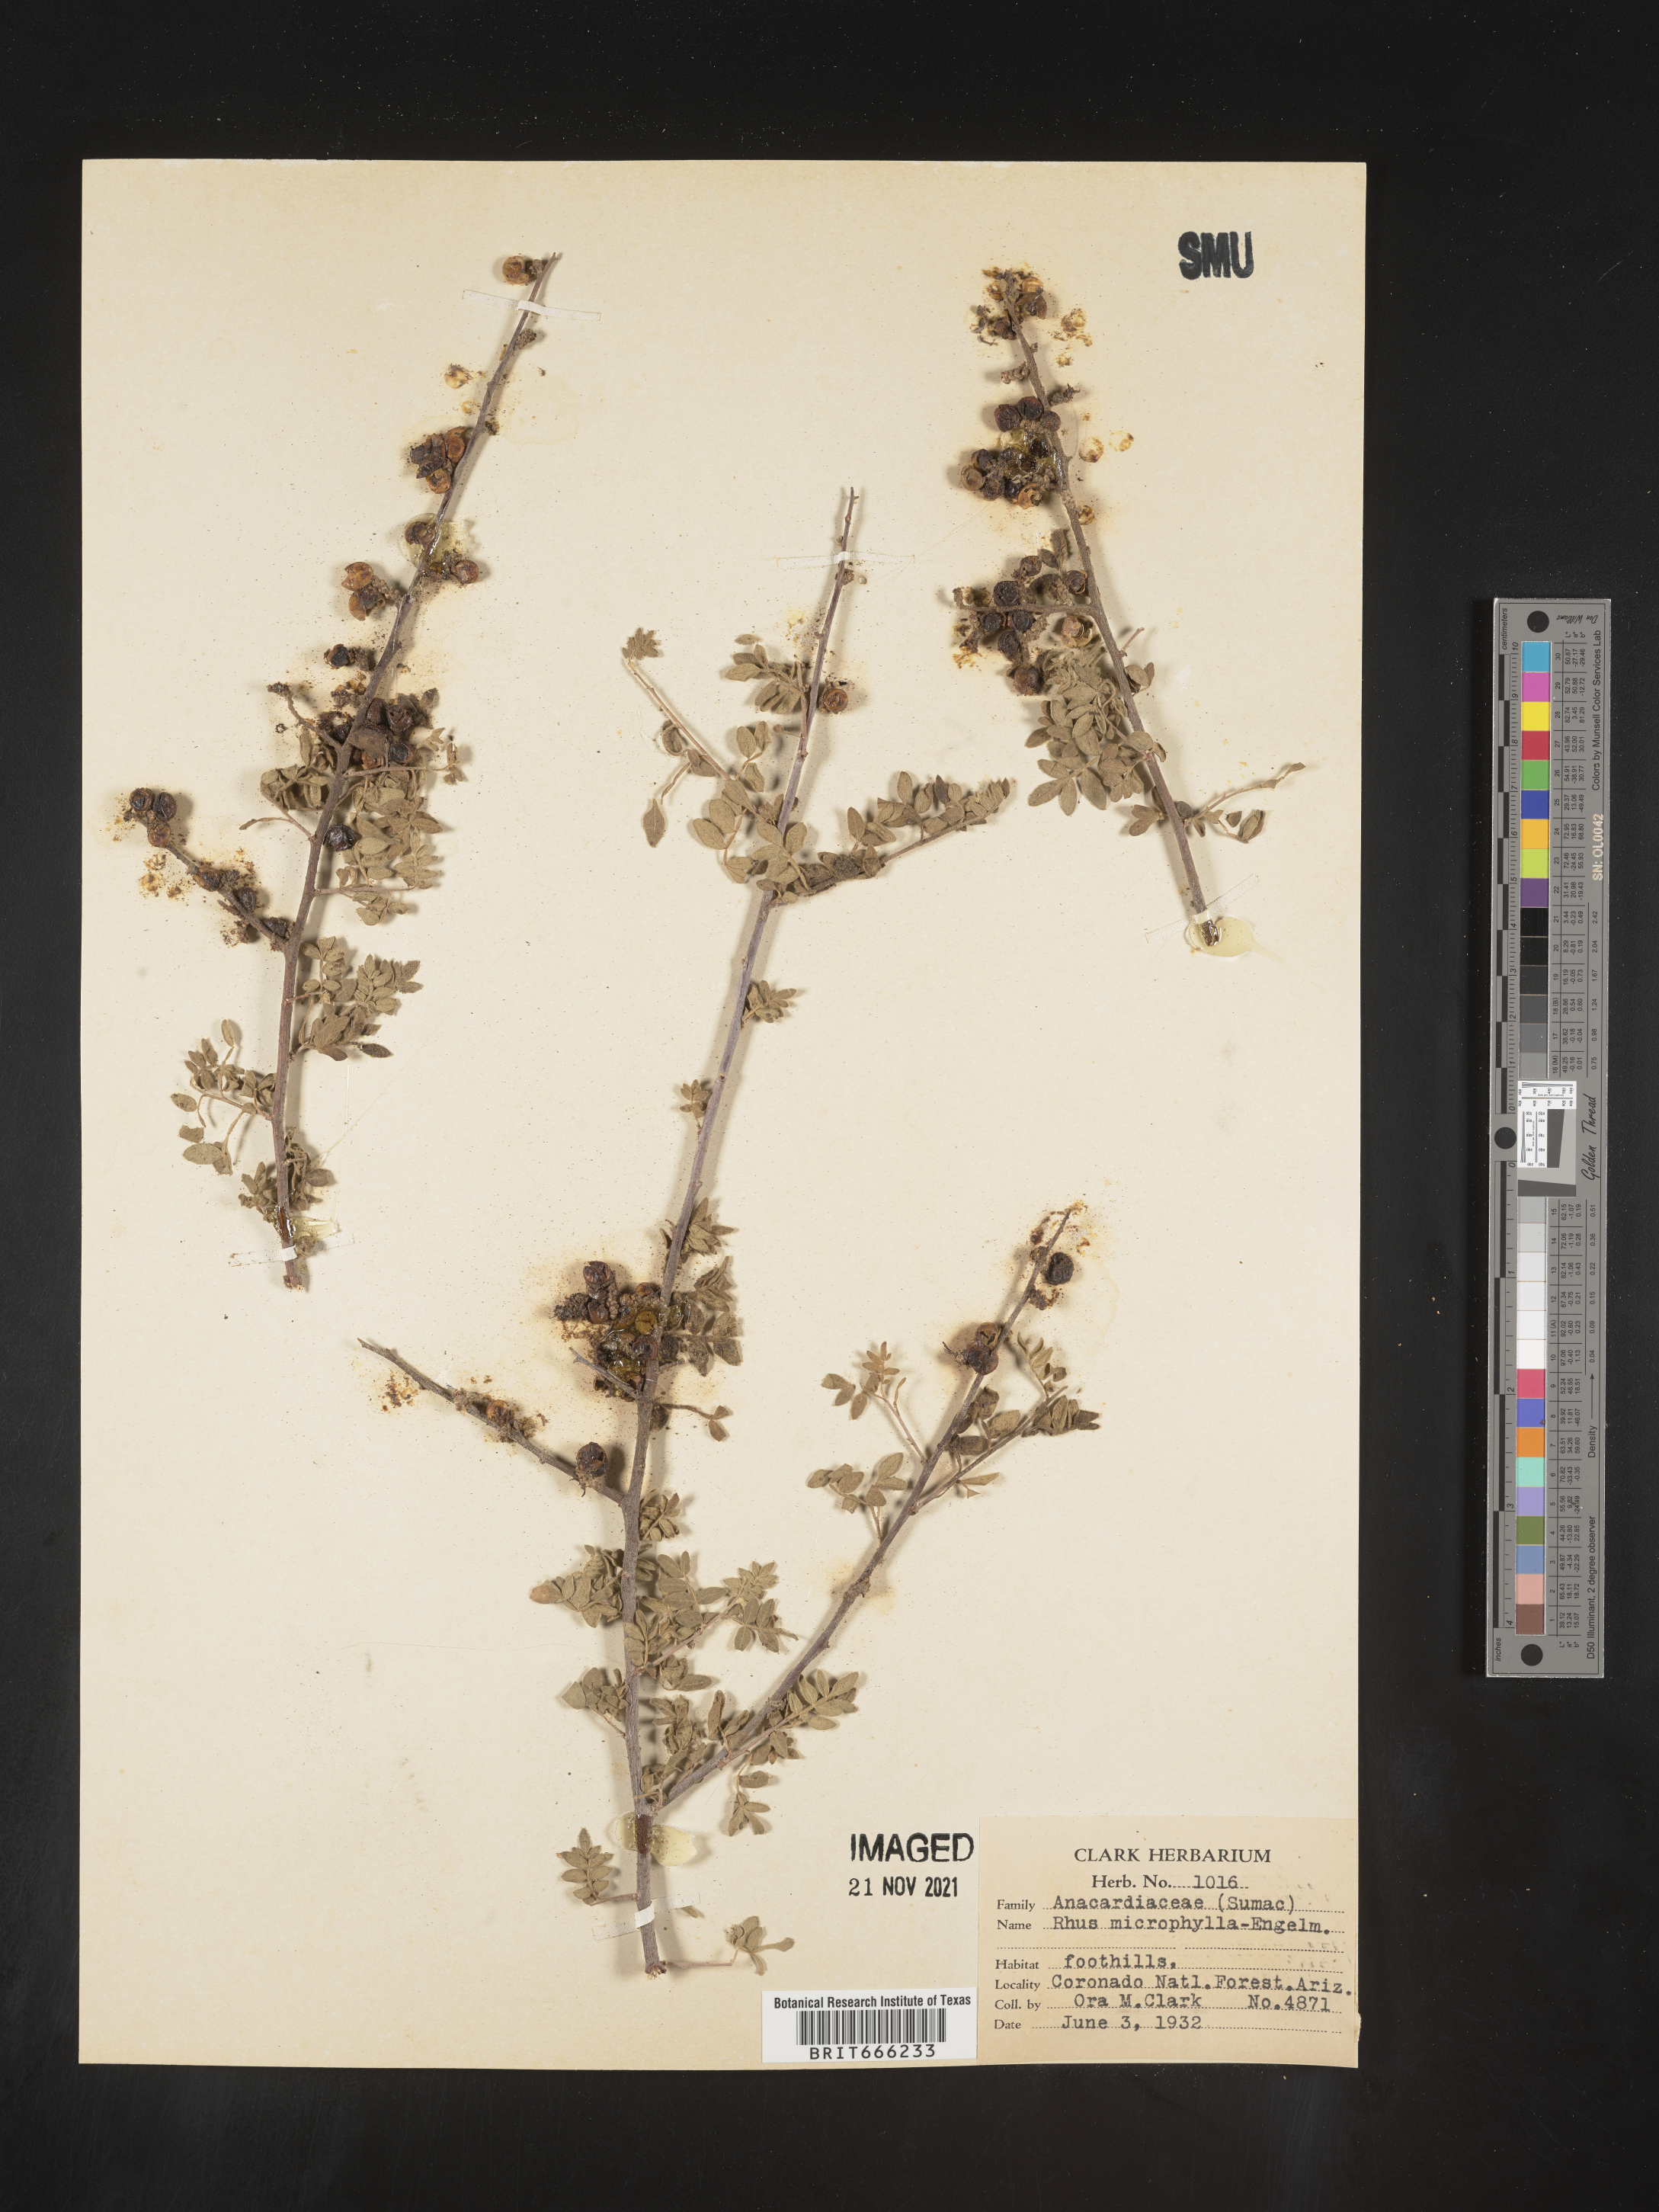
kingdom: Plantae
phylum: Tracheophyta
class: Magnoliopsida
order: Sapindales
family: Anacardiaceae
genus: Rhus
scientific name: Rhus
